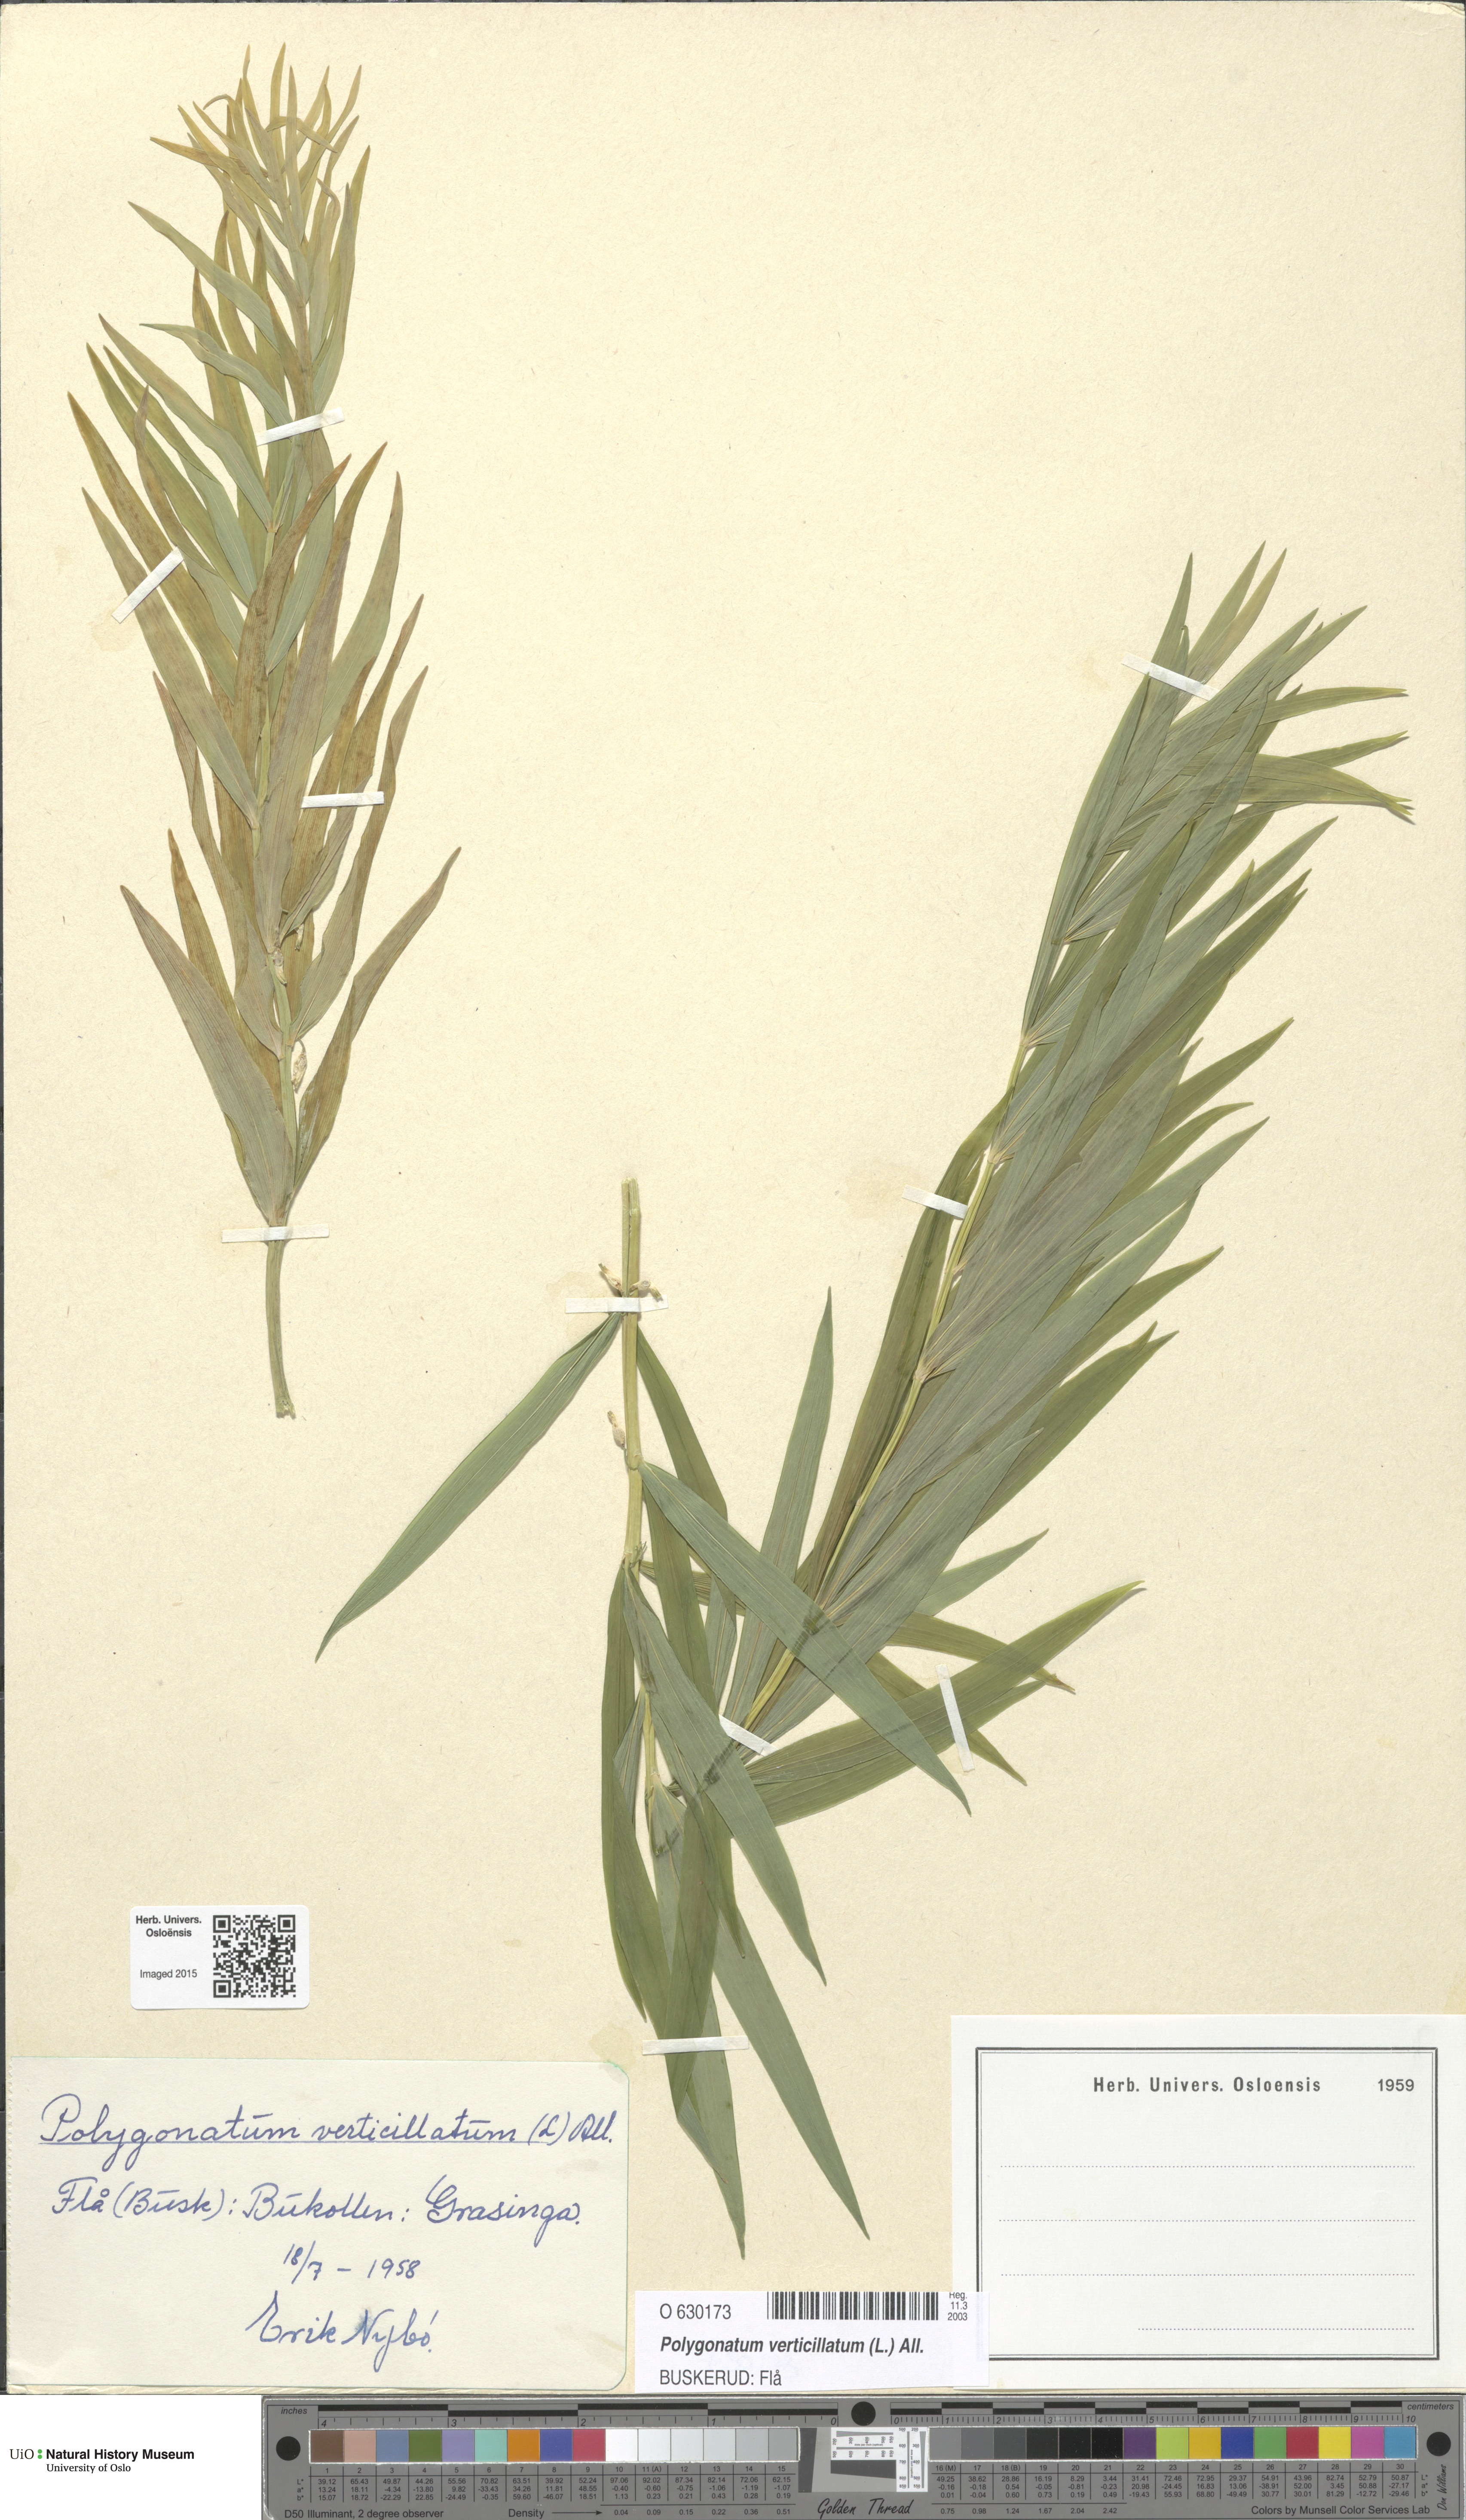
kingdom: Plantae
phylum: Tracheophyta
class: Liliopsida
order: Asparagales
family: Asparagaceae
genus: Polygonatum
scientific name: Polygonatum verticillatum
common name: Whorled solomon's-seal
